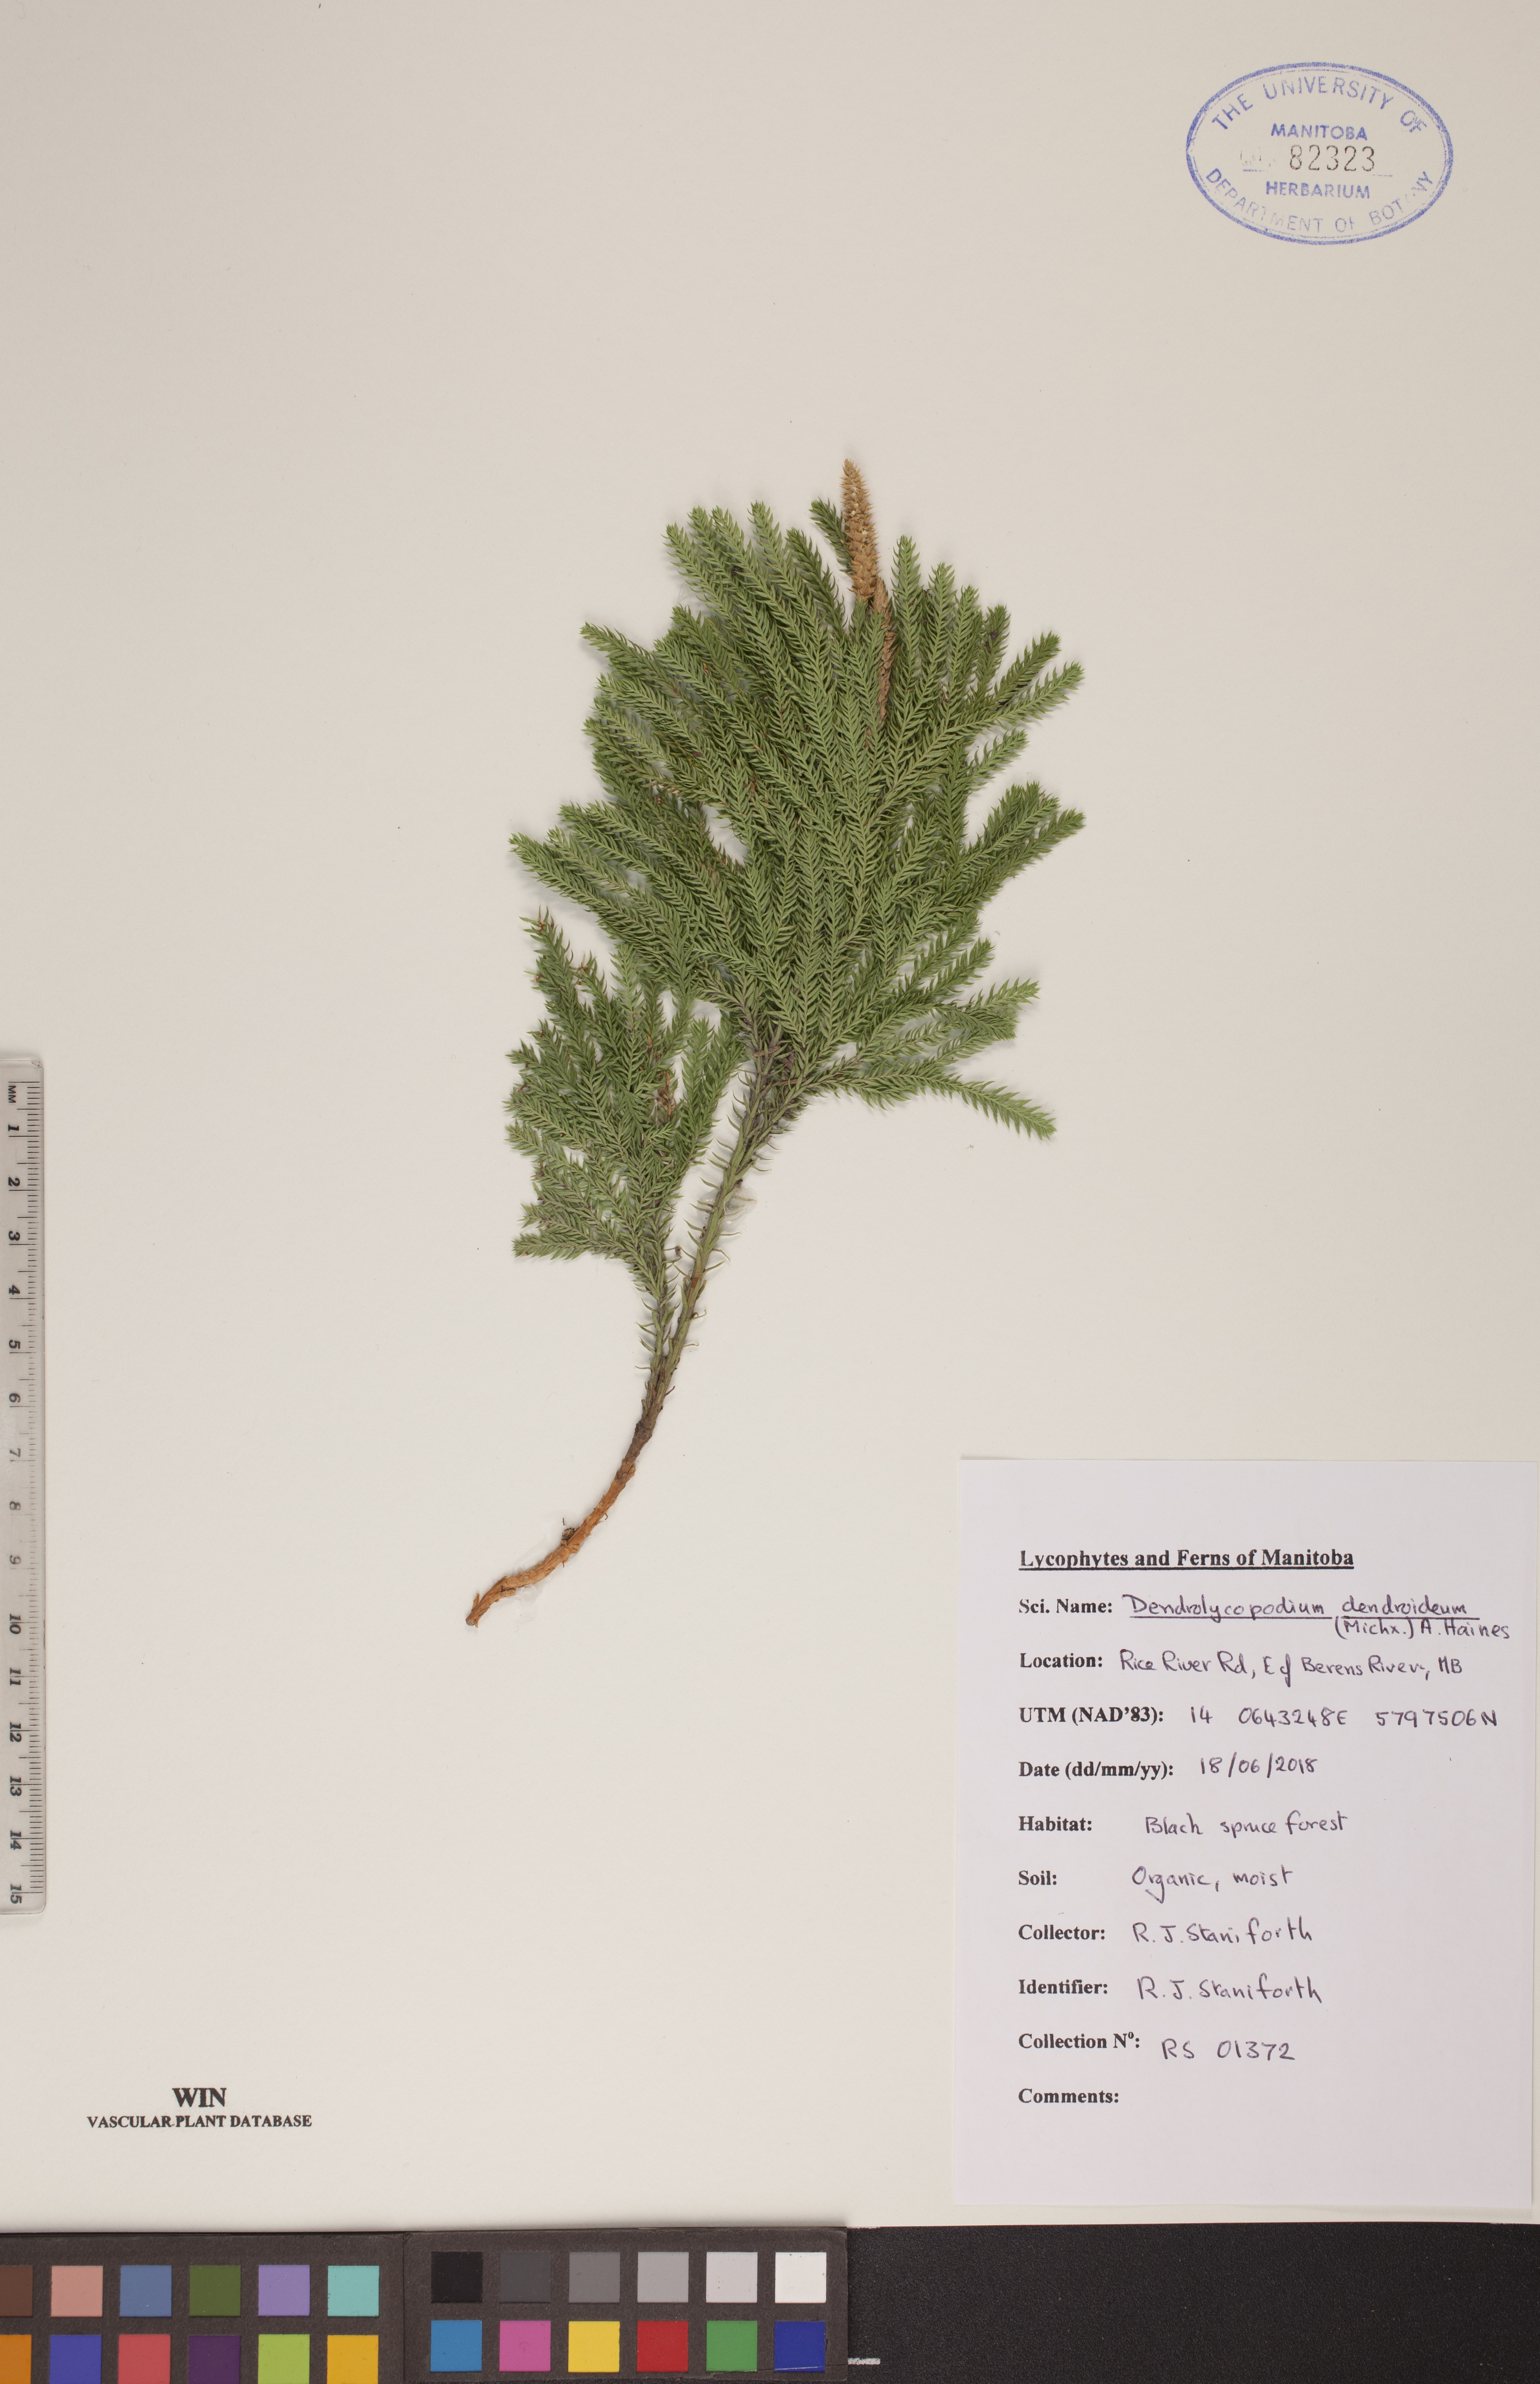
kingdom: Plantae
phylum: Tracheophyta
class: Lycopodiopsida
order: Lycopodiales
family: Lycopodiaceae
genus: Dendrolycopodium
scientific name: Dendrolycopodium dendroideum
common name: Northern tree-clubmoss
